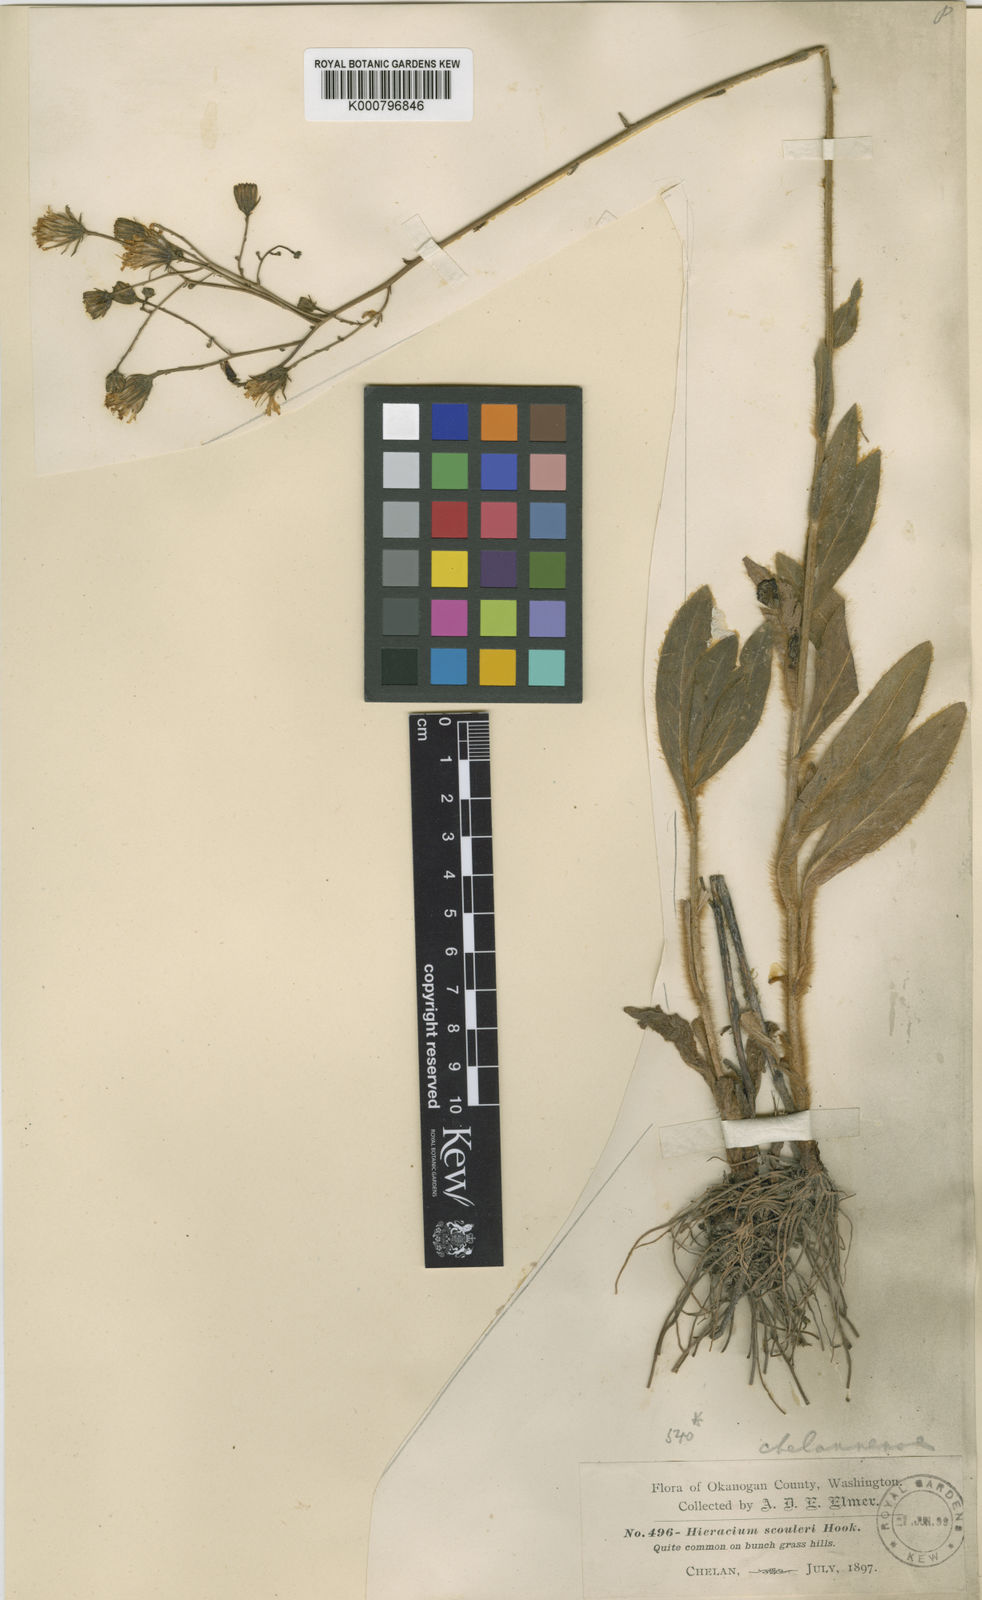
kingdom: Plantae
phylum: Tracheophyta
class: Magnoliopsida
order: Asterales
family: Asteraceae
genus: Hieracium
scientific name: Hieracium chelannense
